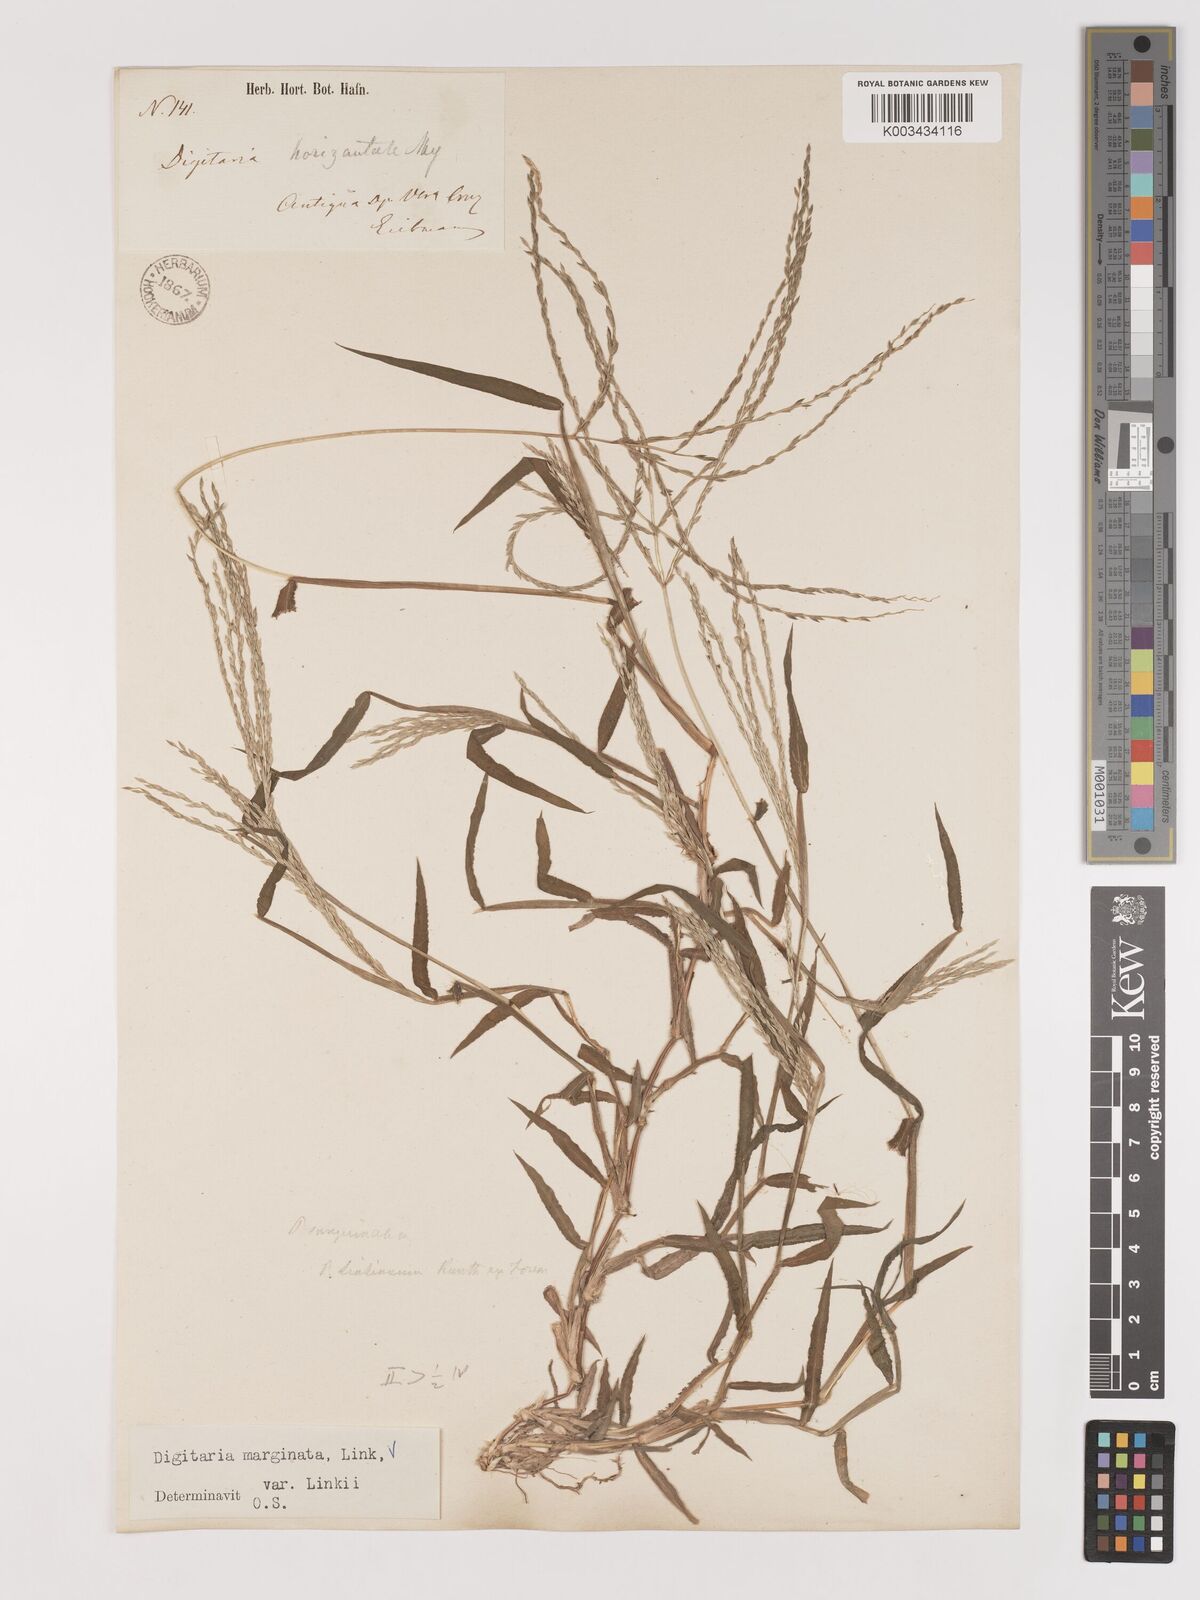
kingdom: Plantae
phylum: Tracheophyta
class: Liliopsida
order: Poales
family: Poaceae
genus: Digitaria
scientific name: Digitaria ciliaris
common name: Tropical finger-grass
